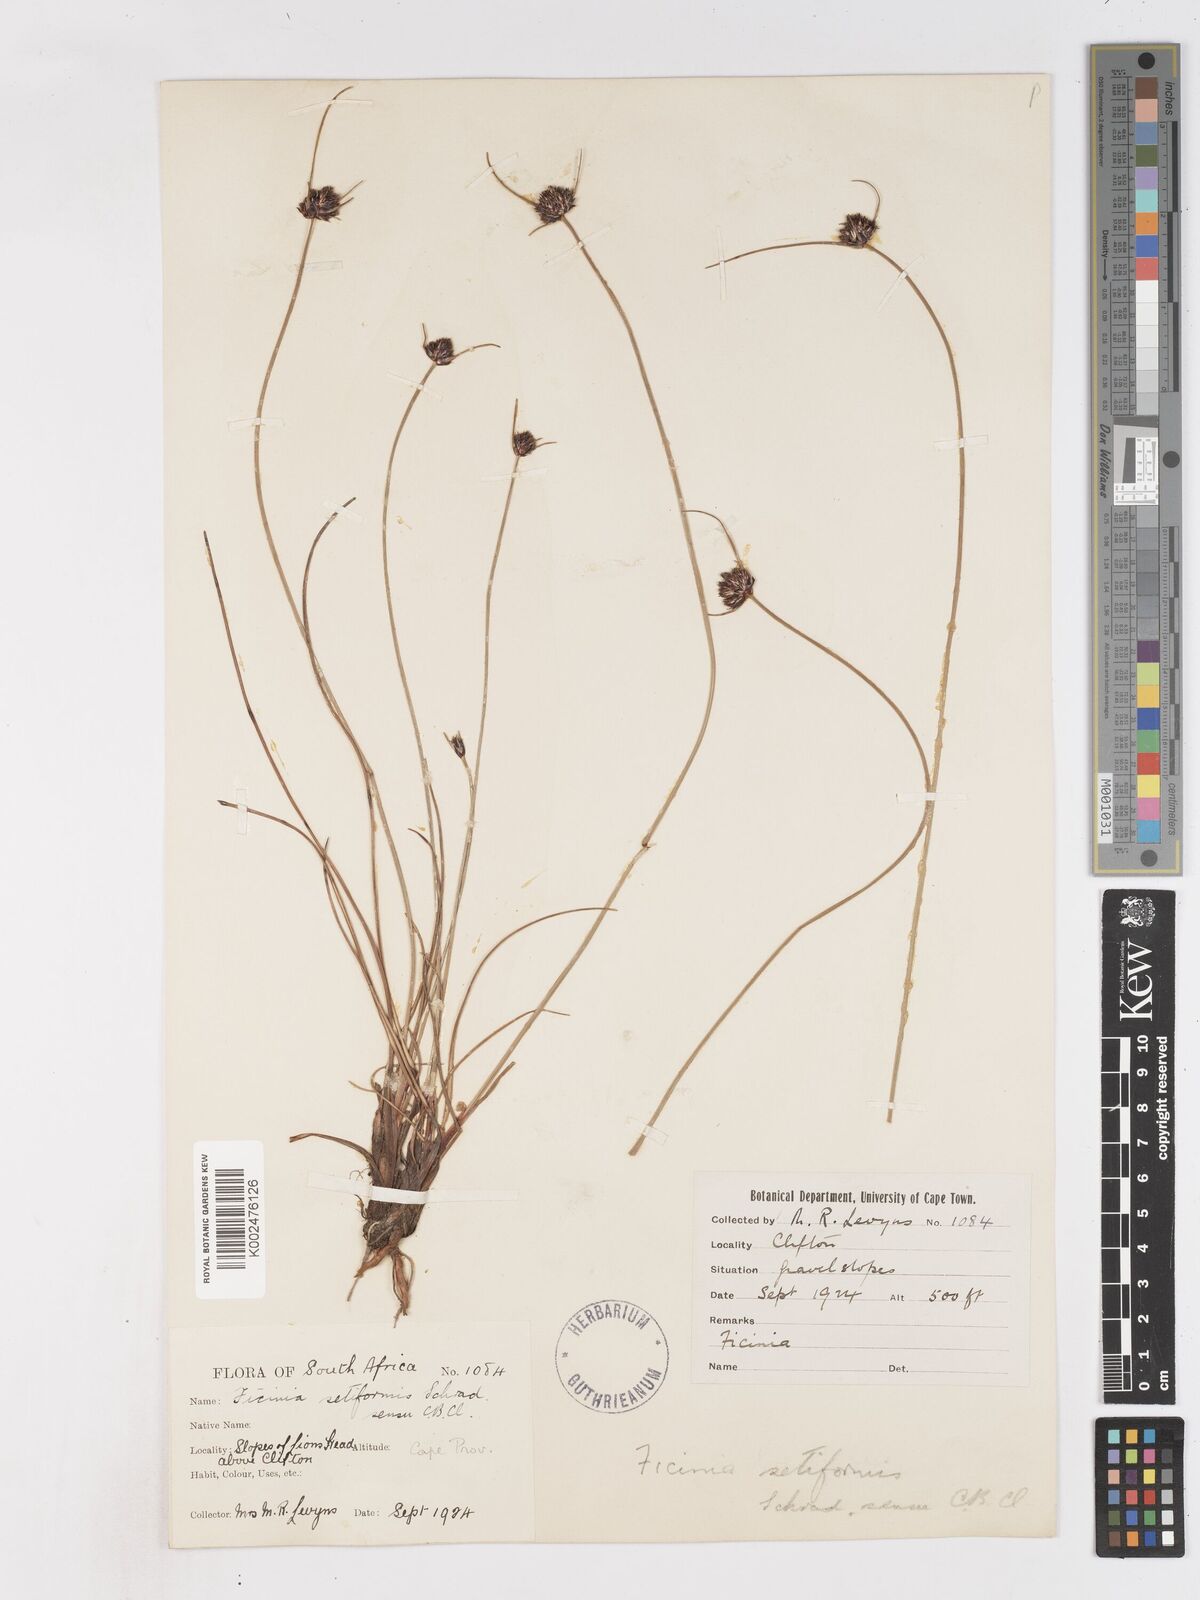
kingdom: Plantae
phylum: Tracheophyta
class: Liliopsida
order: Poales
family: Cyperaceae
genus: Ficinia
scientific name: Ficinia indica
